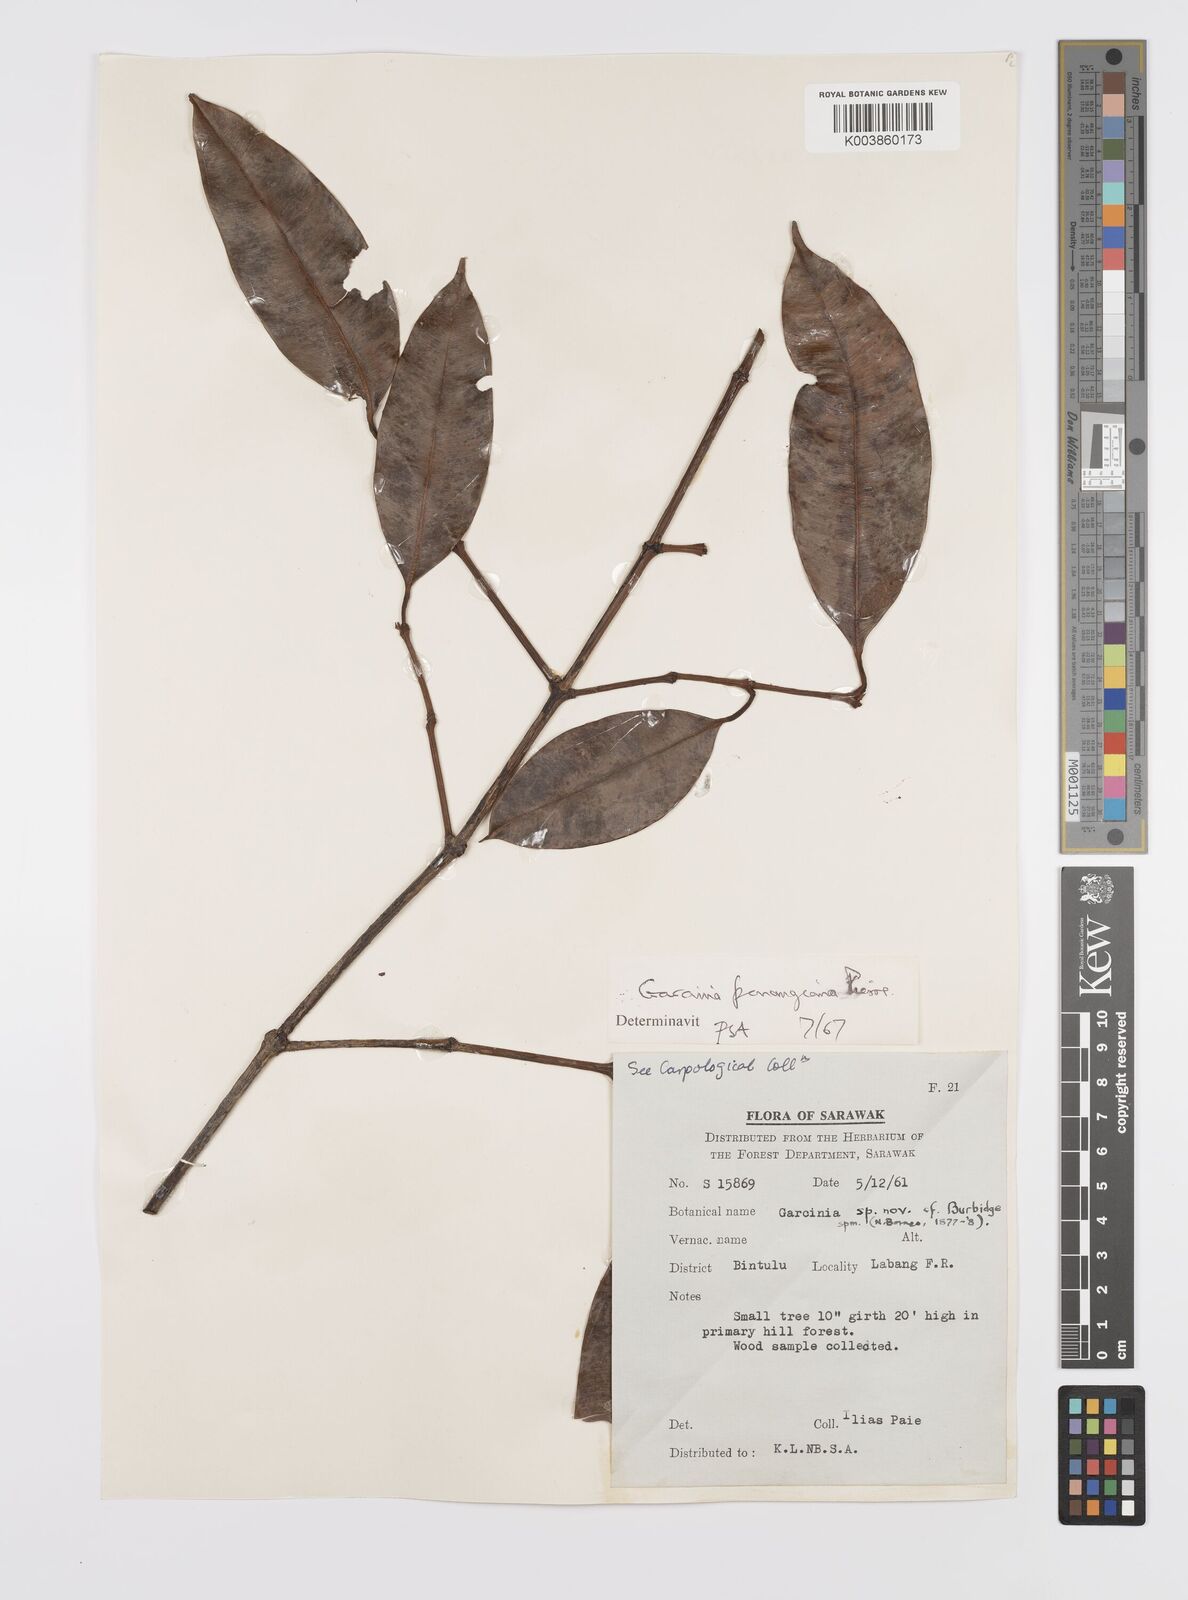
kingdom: Plantae
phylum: Tracheophyta
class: Magnoliopsida
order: Malpighiales
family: Clusiaceae
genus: Garcinia
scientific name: Garcinia penangiana
